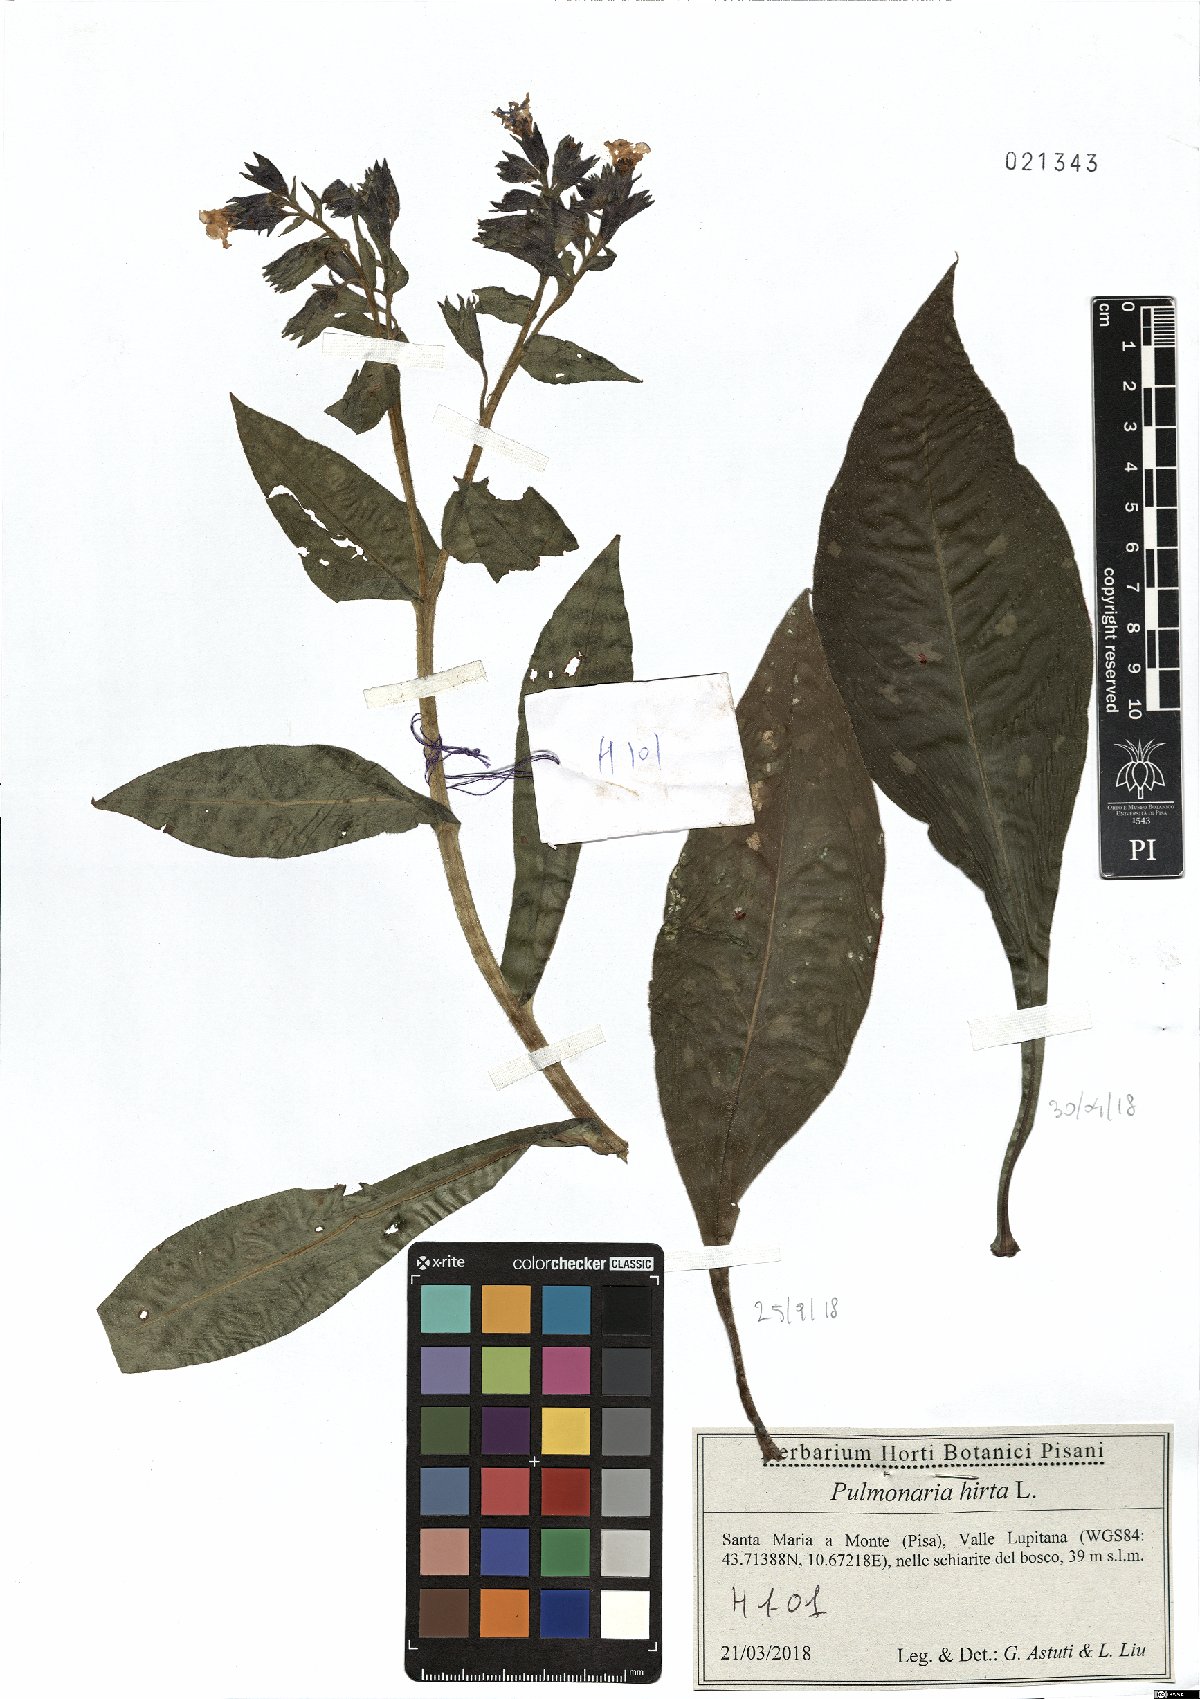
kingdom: Plantae
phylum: Tracheophyta
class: Magnoliopsida
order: Boraginales
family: Boraginaceae
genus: Pulmonaria
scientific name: Pulmonaria hirta
